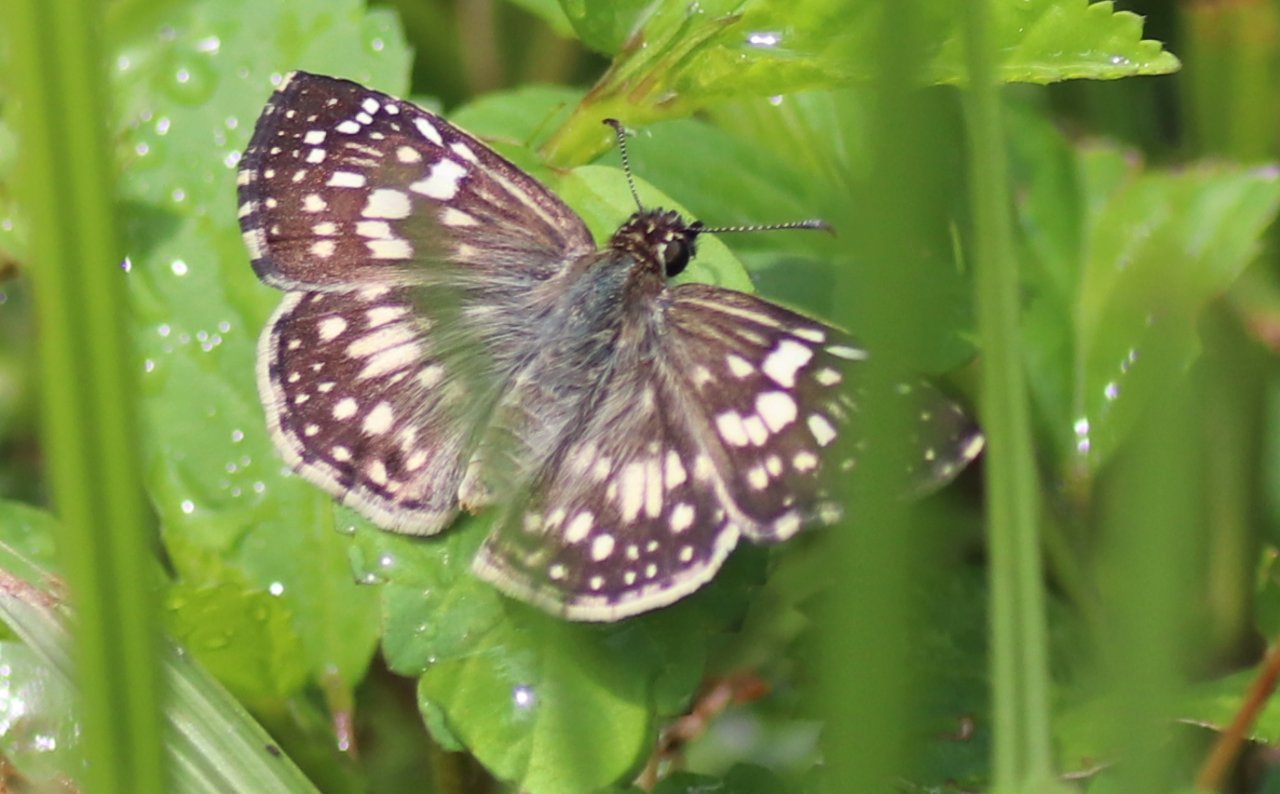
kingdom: Animalia
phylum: Arthropoda
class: Insecta
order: Lepidoptera
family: Hesperiidae
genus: Pyrgus
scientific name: Pyrgus oileus
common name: Tropical Checkered-Skipper
